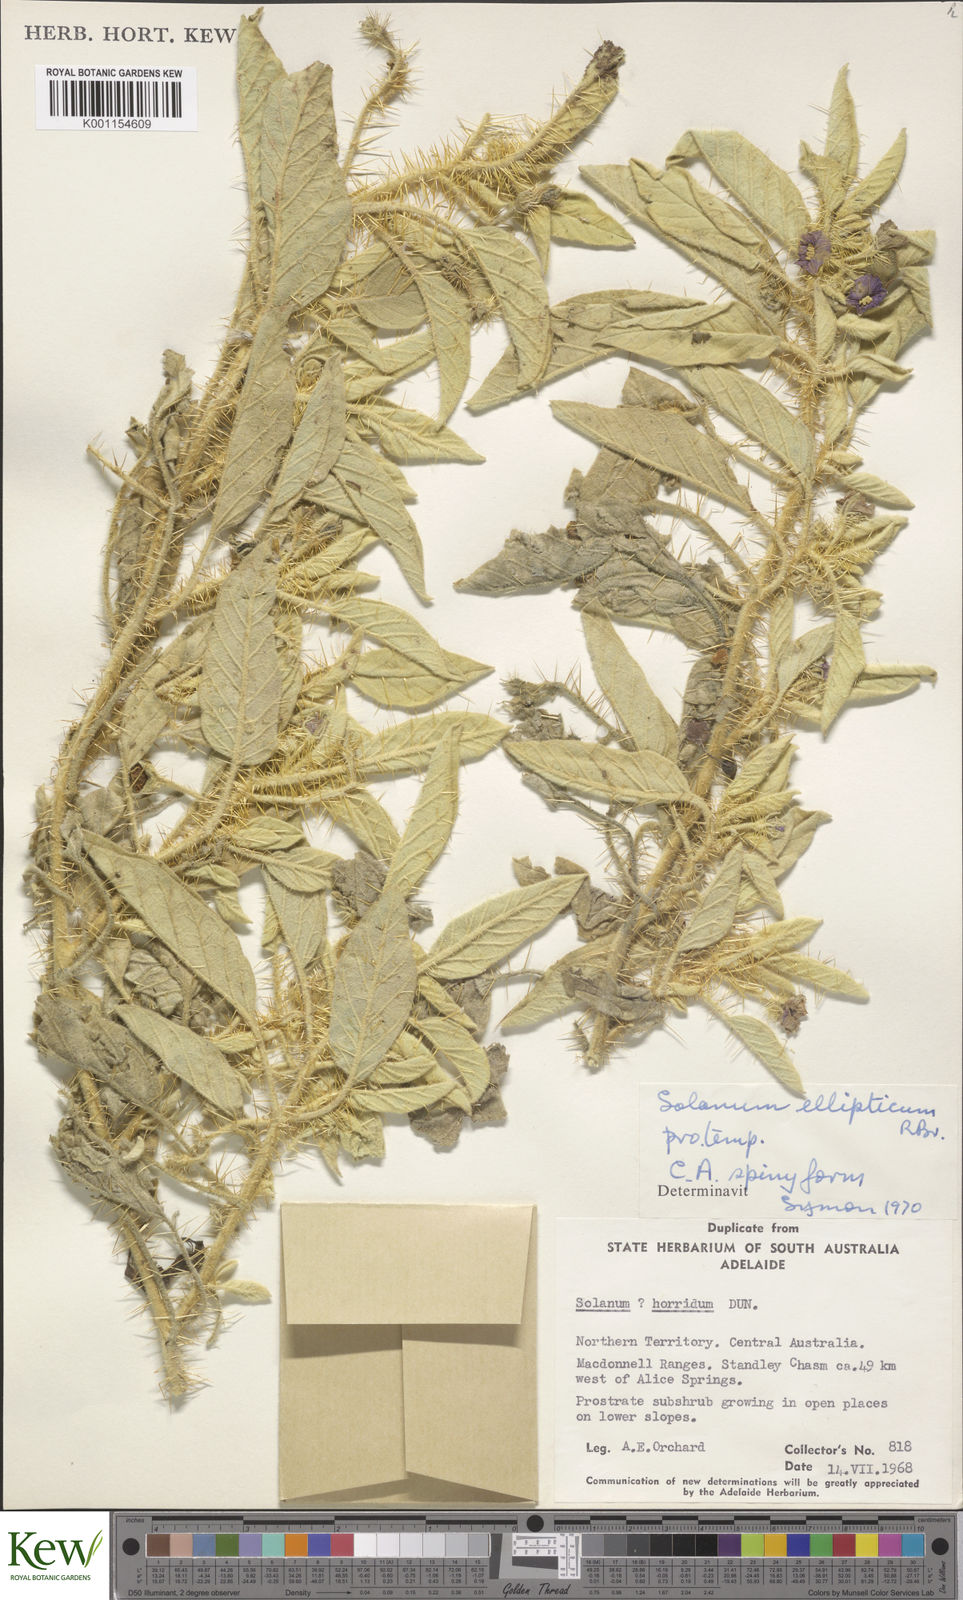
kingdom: Plantae
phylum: Tracheophyta
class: Magnoliopsida
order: Solanales
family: Solanaceae
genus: Solanum
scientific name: Solanum ellipticum
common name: Potato-bush
